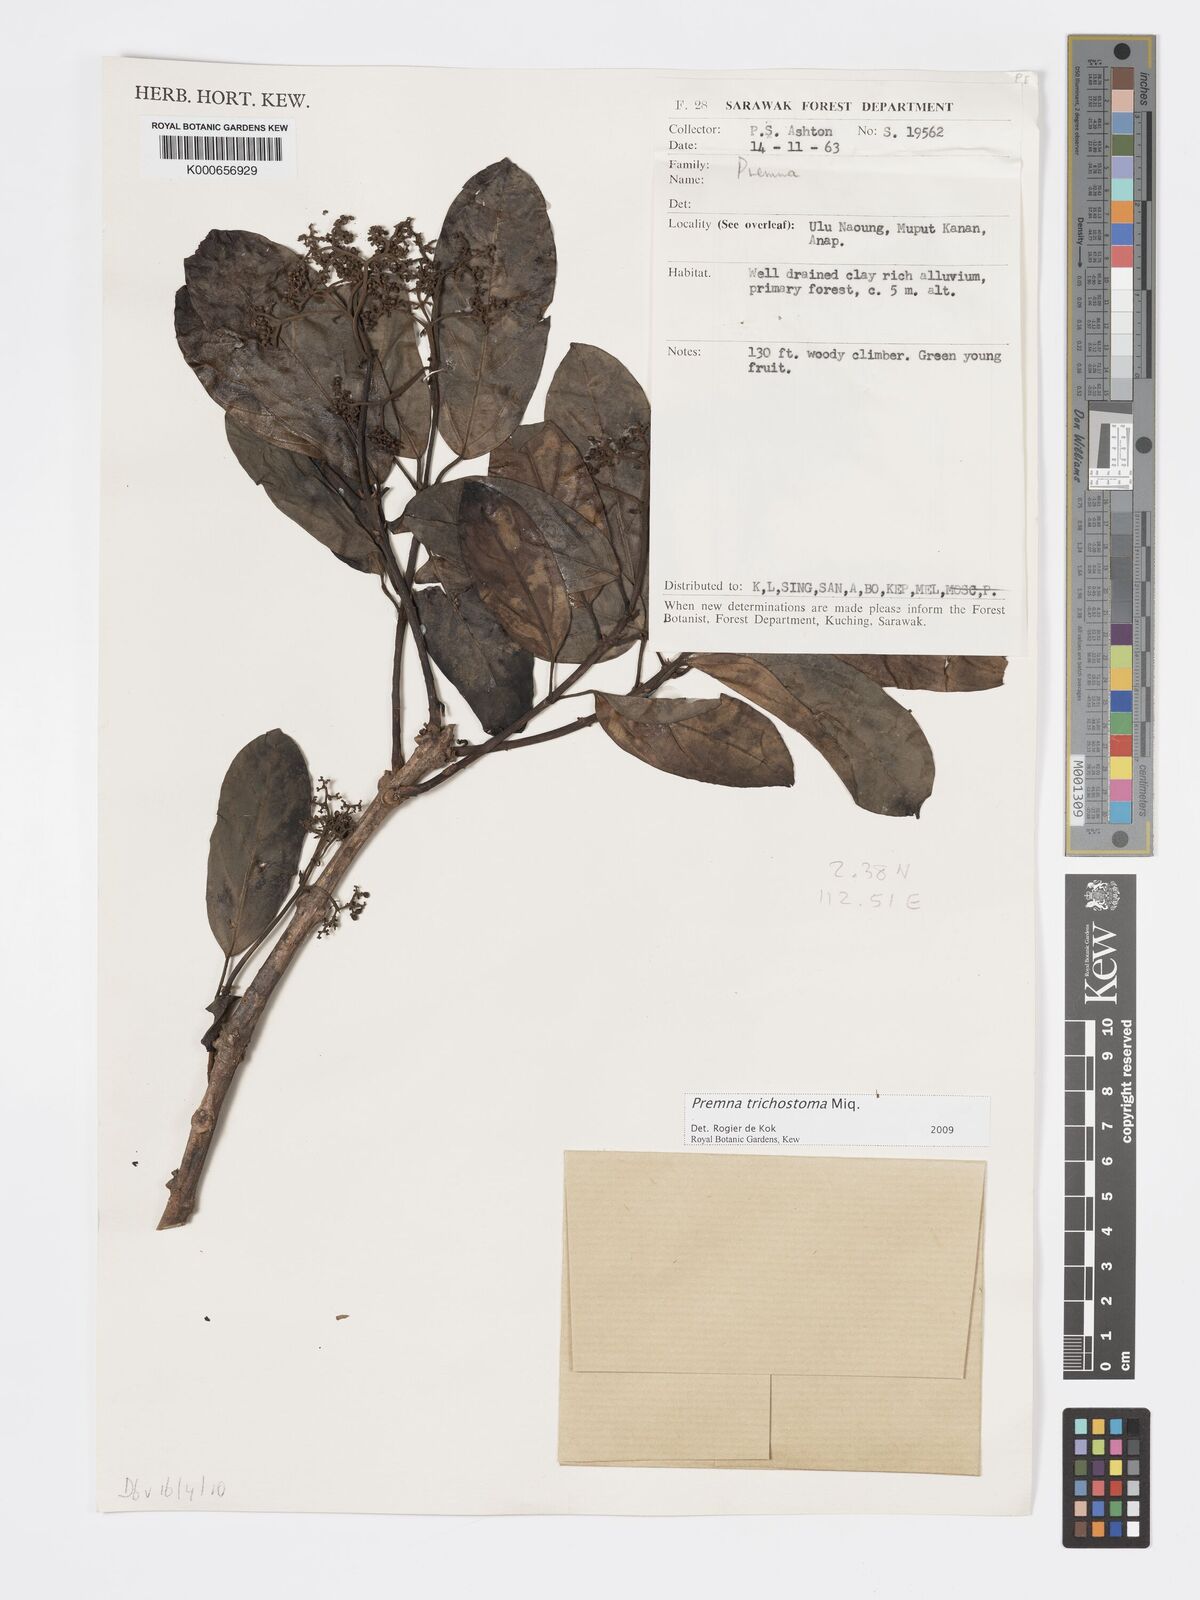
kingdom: Plantae
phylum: Tracheophyta
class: Magnoliopsida
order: Lamiales
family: Lamiaceae
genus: Premna
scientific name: Premna trichostoma
